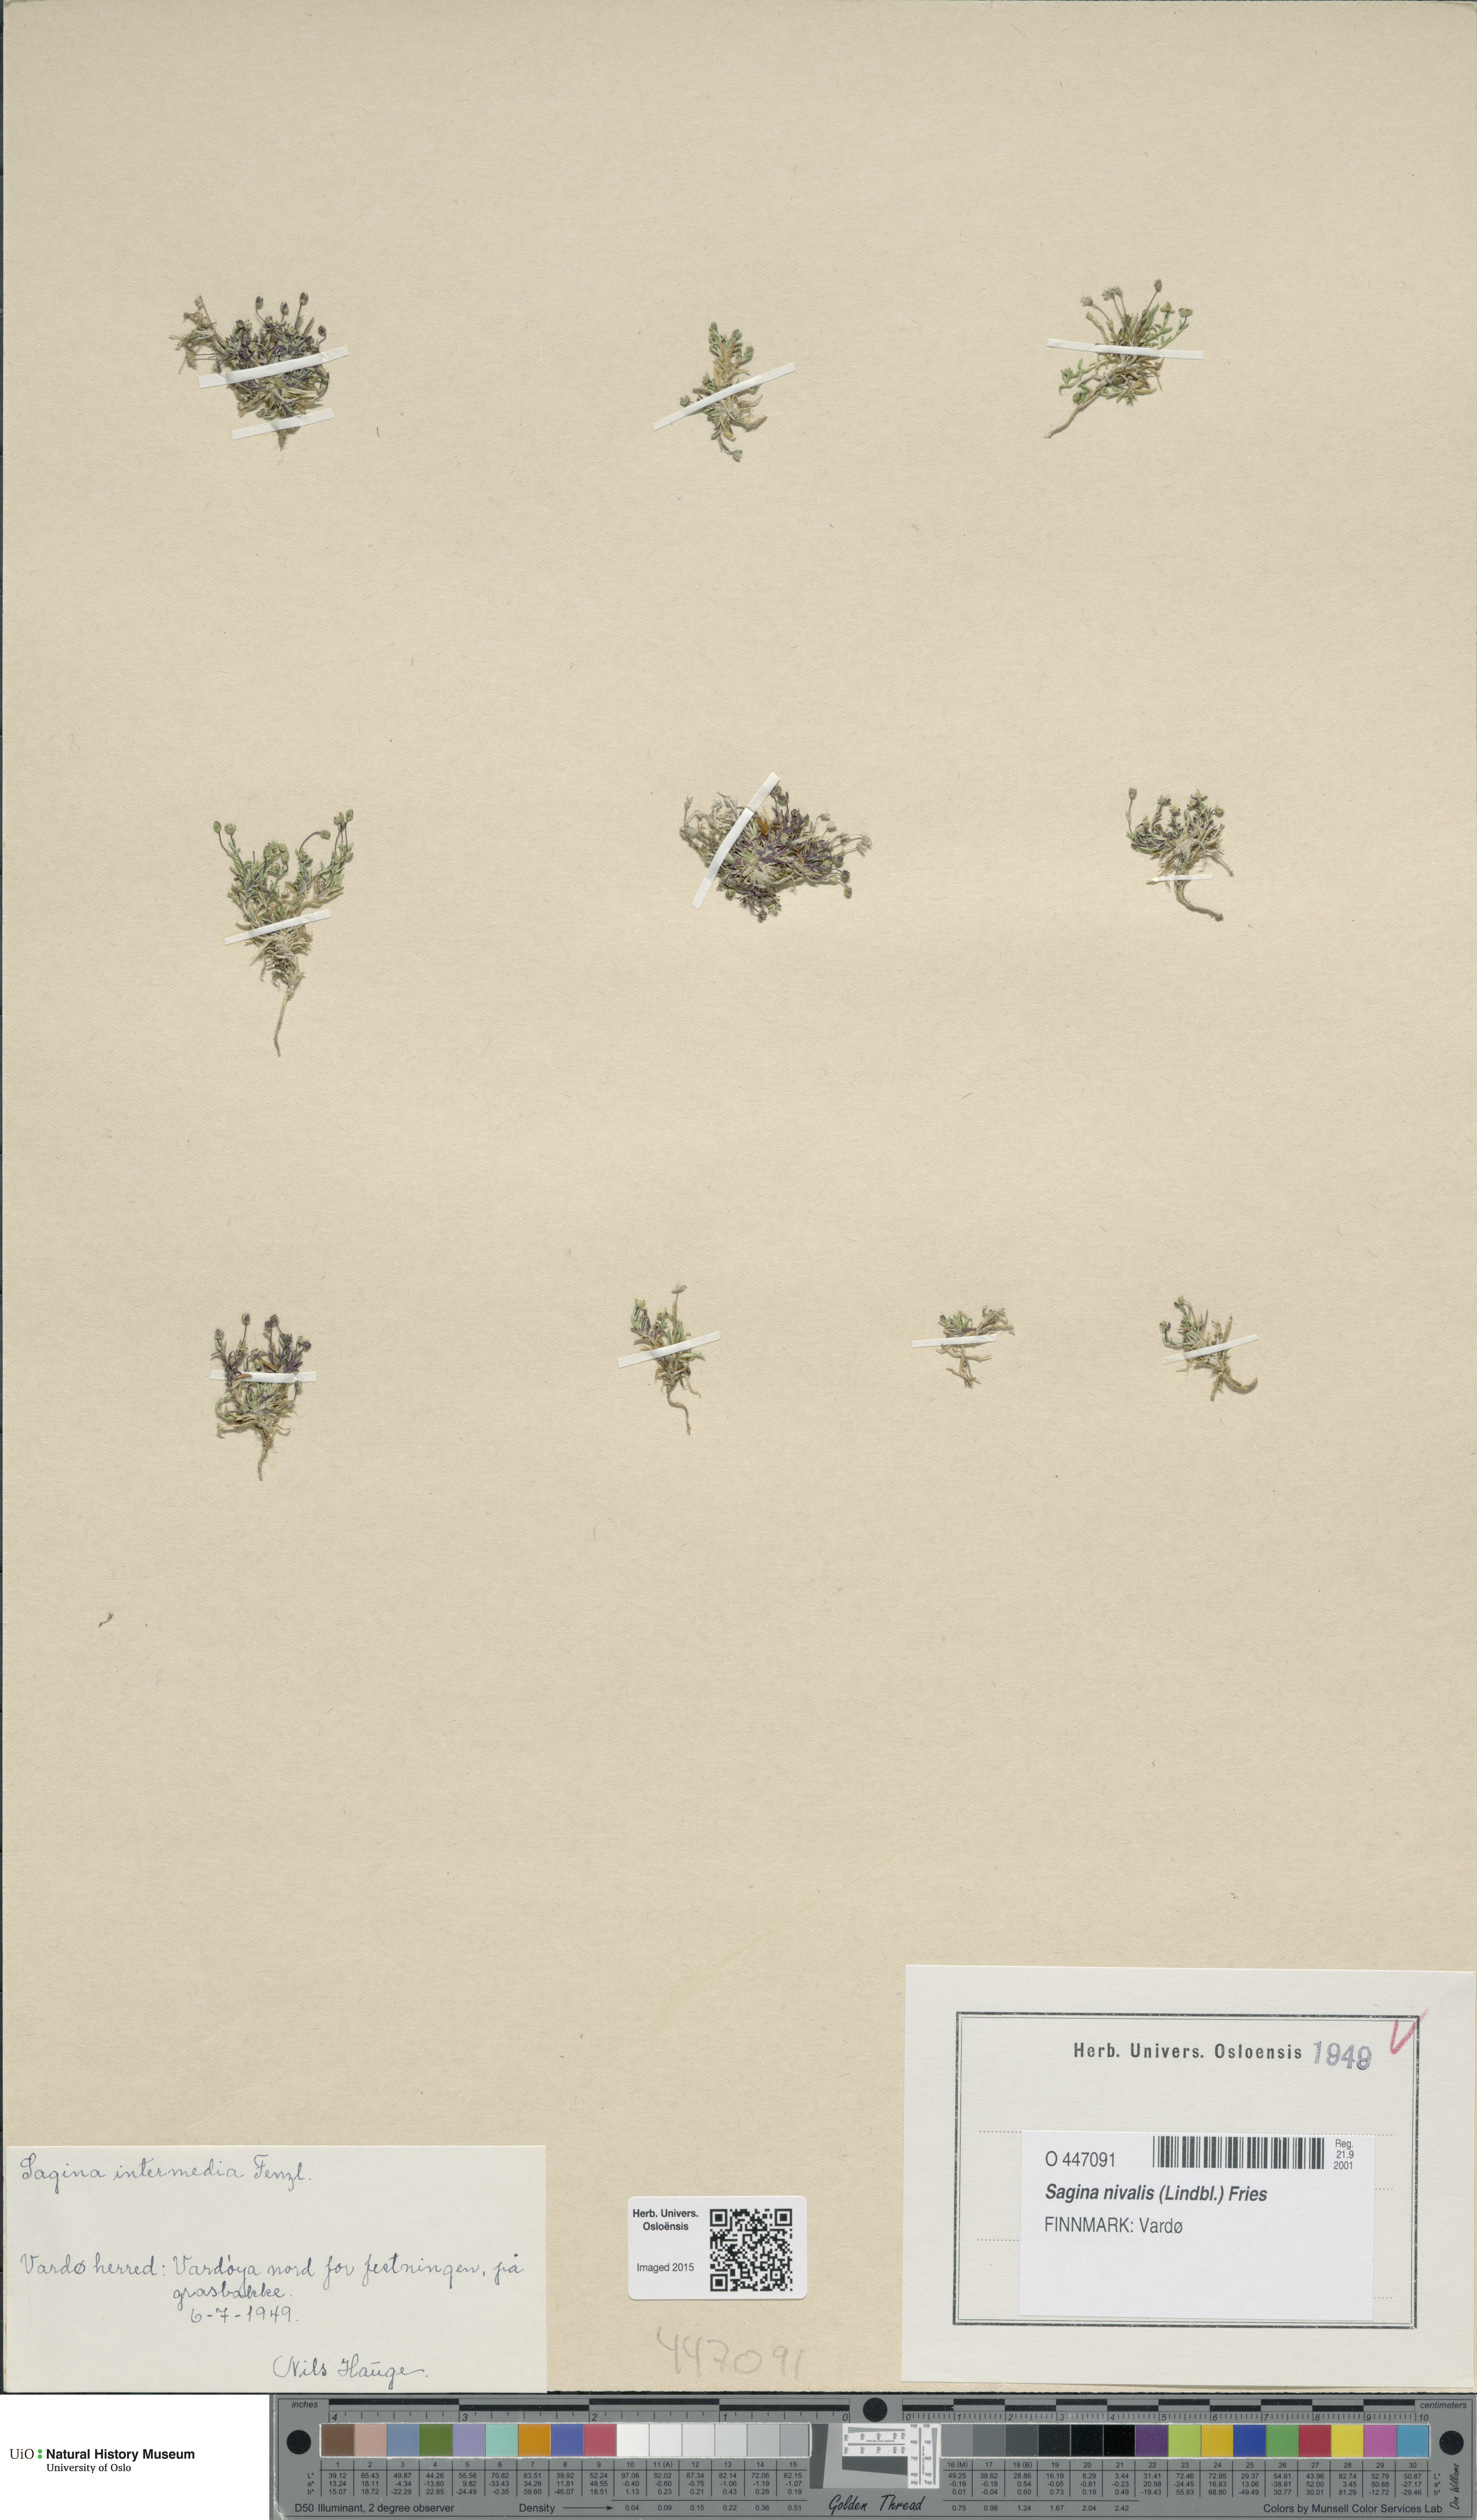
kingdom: Plantae
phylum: Tracheophyta
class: Magnoliopsida
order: Caryophyllales
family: Caryophyllaceae
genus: Sagina
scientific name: Sagina nivalis
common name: Snow pearlwort
